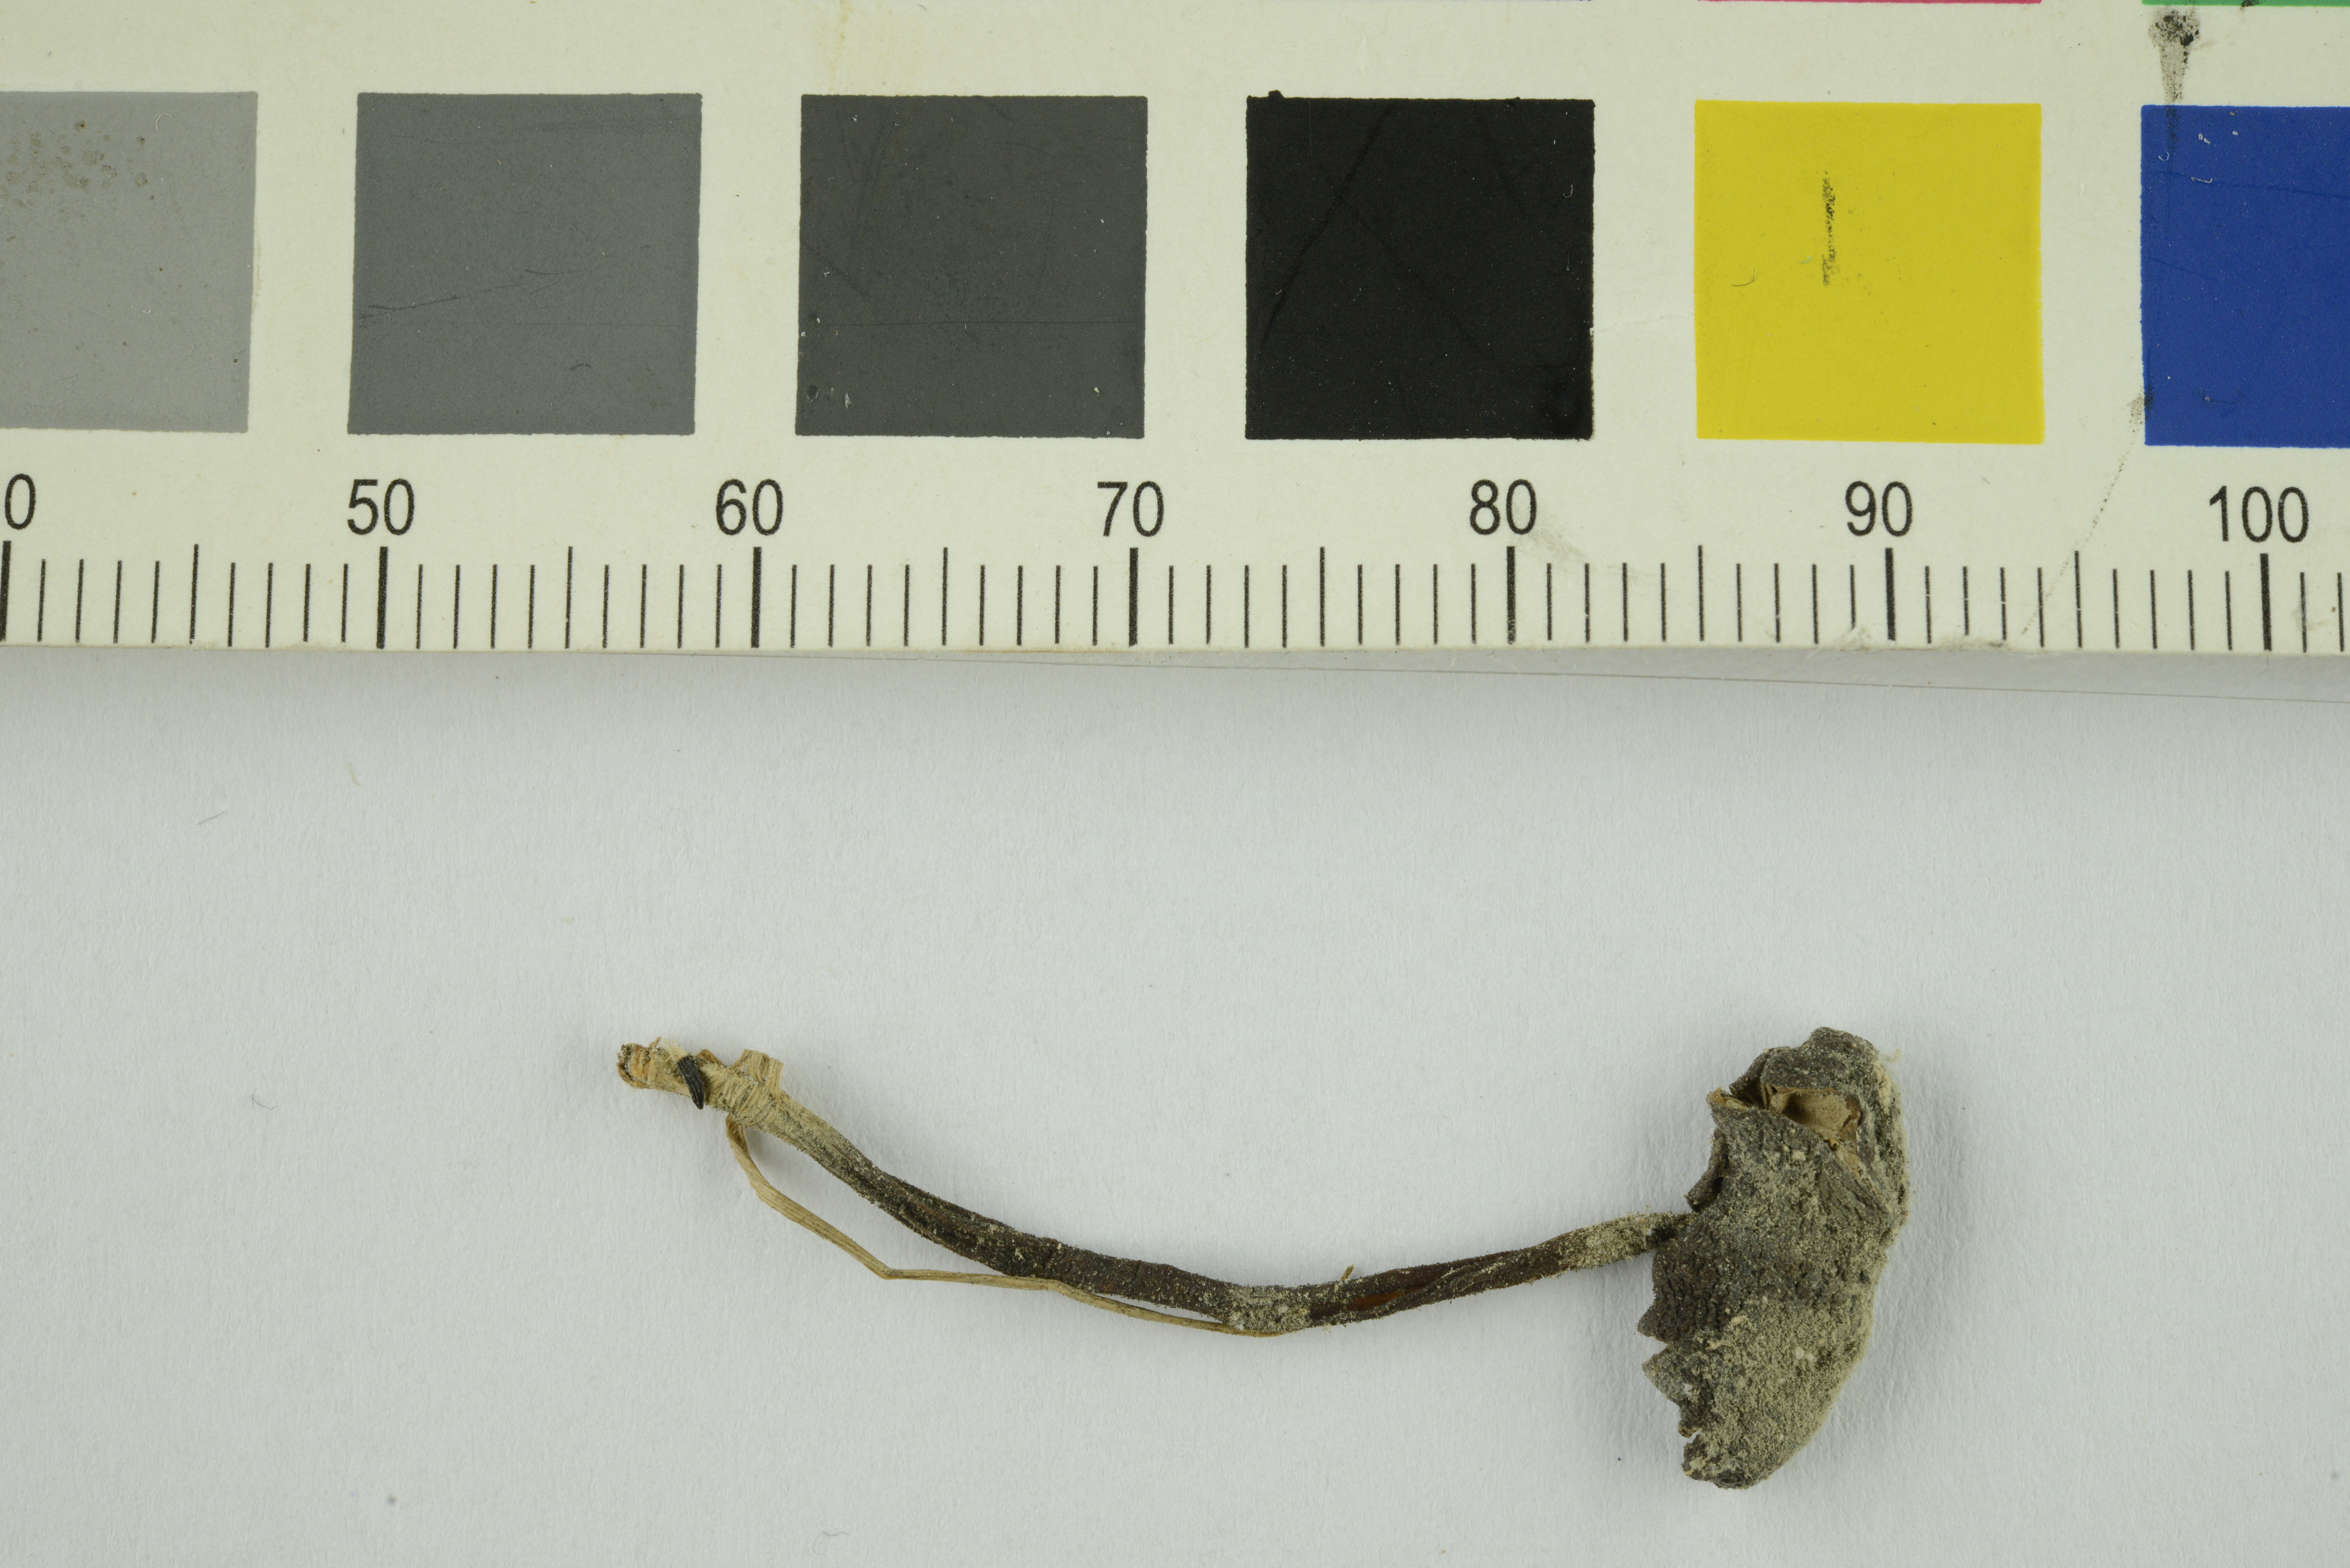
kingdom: Fungi
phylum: Basidiomycota
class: Agaricomycetes
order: Agaricales
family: Entolomataceae
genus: Entoloma
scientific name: Entoloma clandestinum
